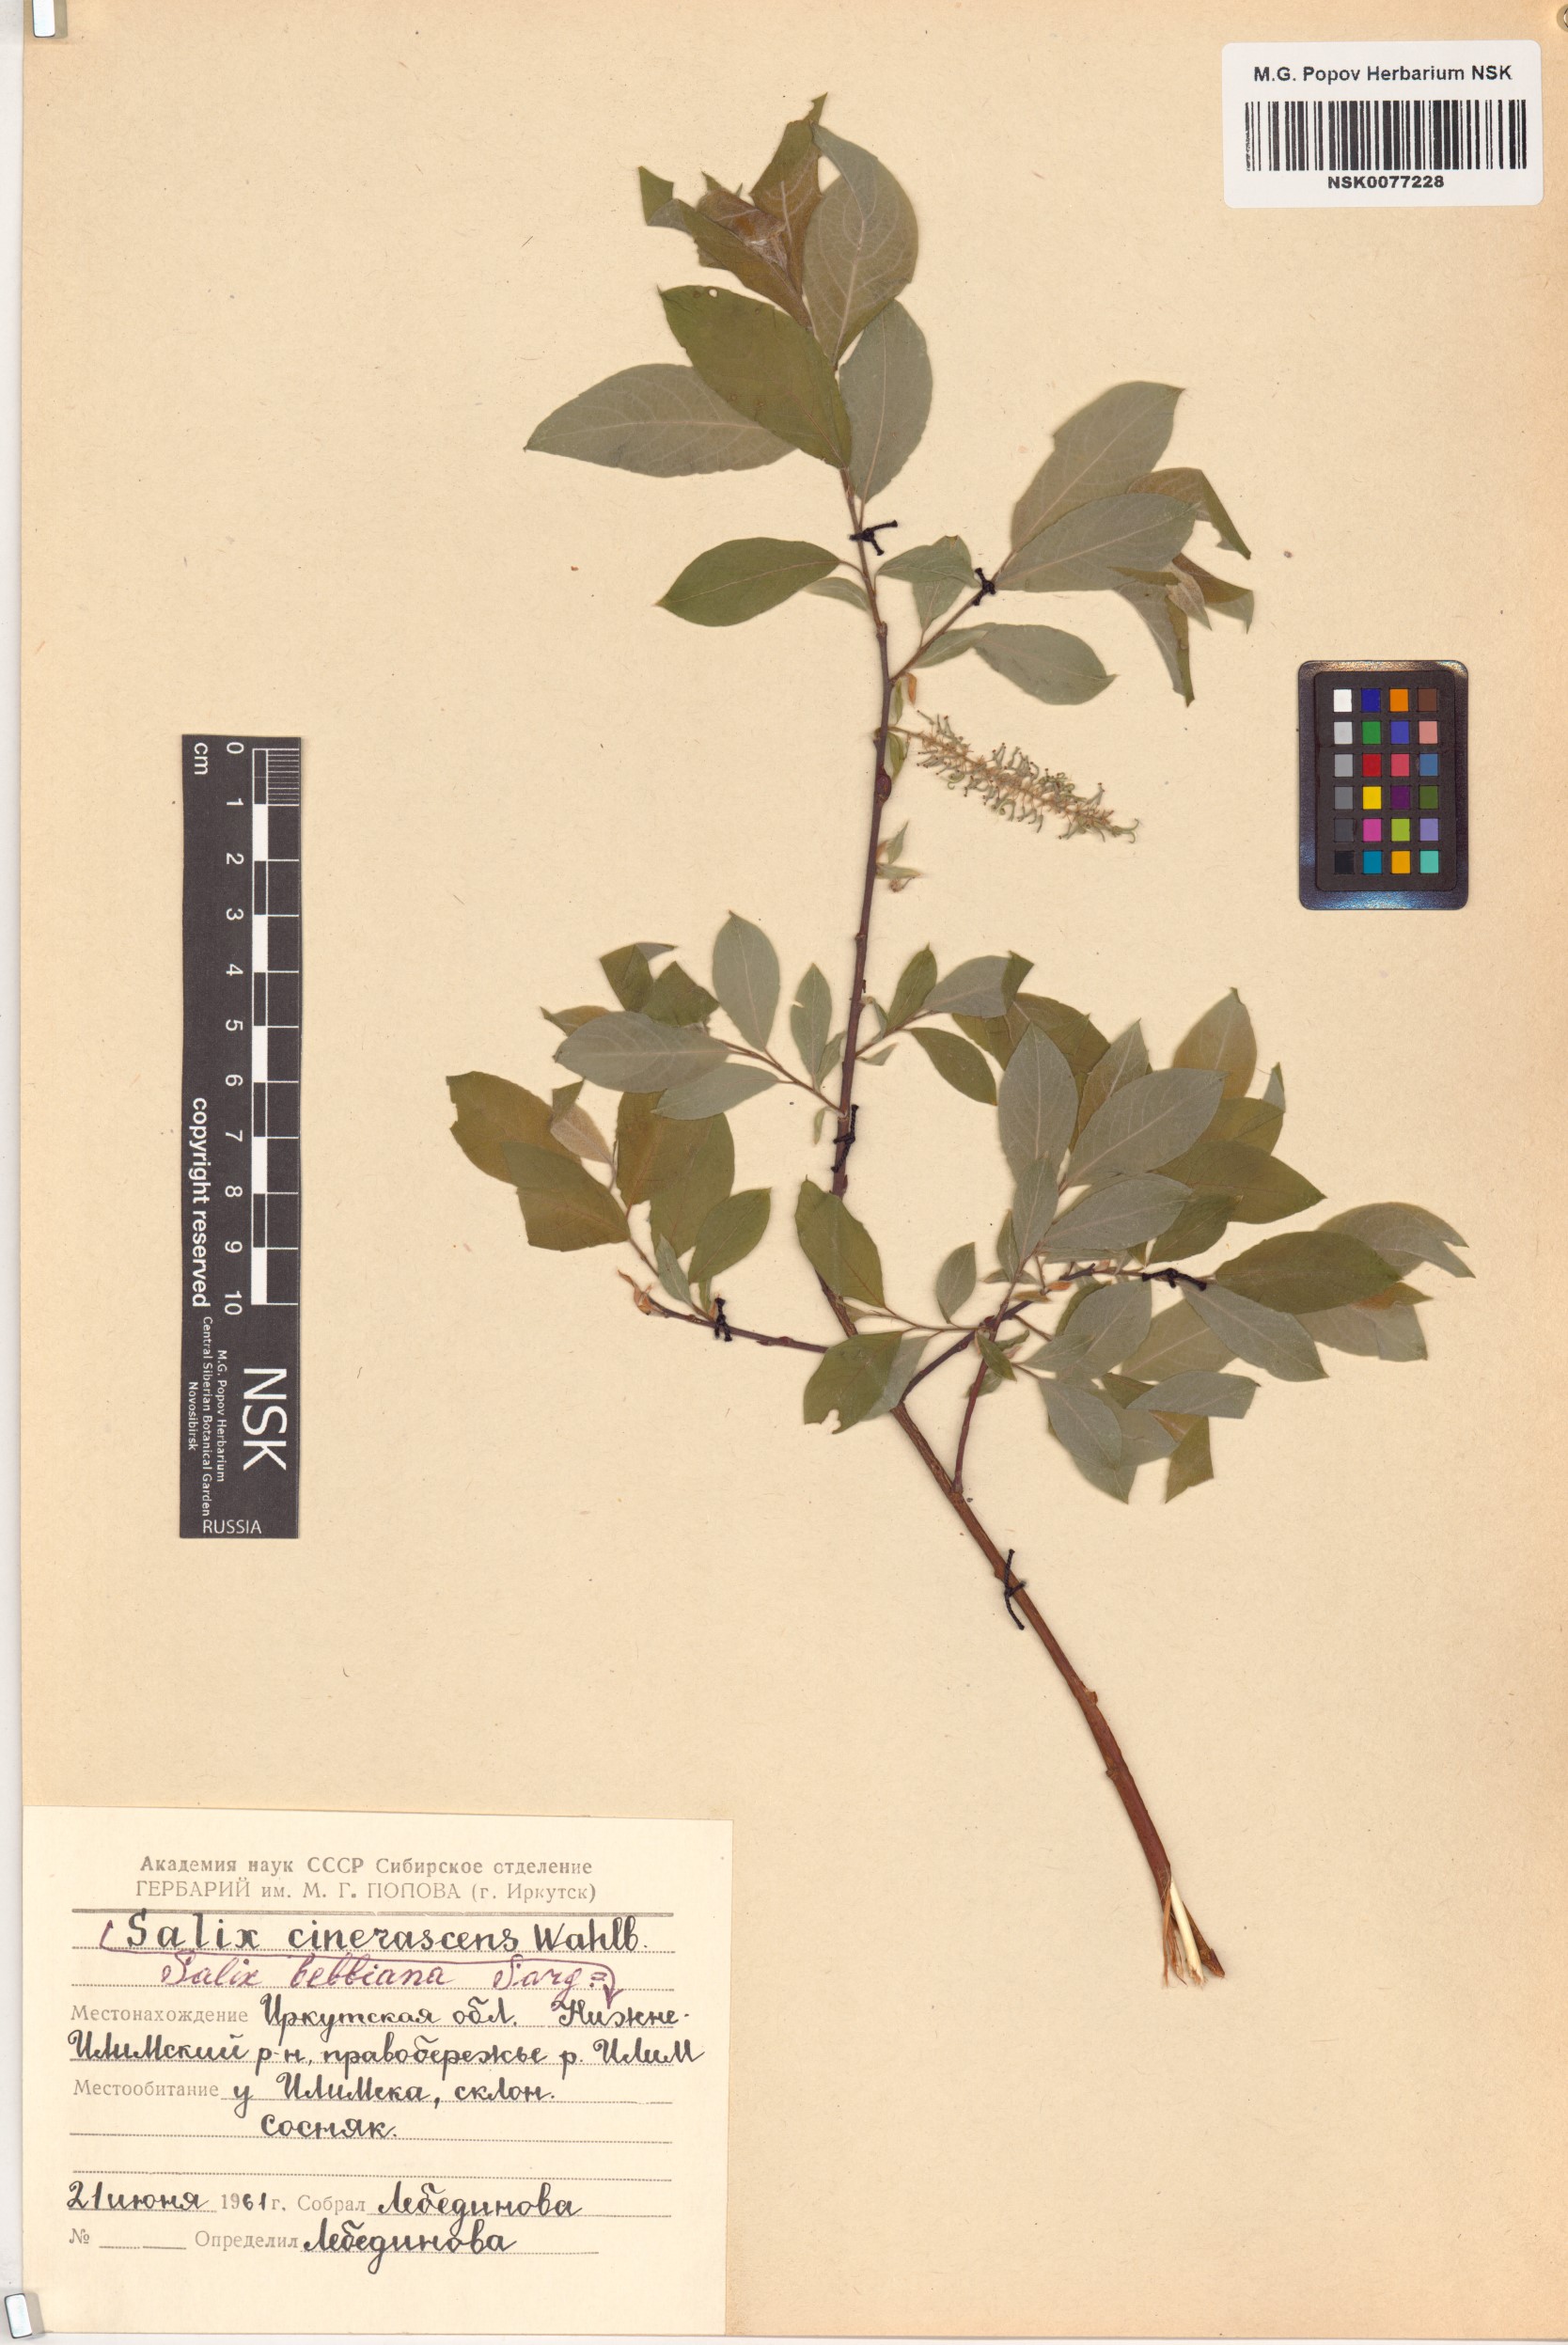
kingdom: Plantae
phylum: Tracheophyta
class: Magnoliopsida
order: Malpighiales
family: Salicaceae
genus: Salix
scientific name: Salix bebbiana
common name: Bebb's willow
